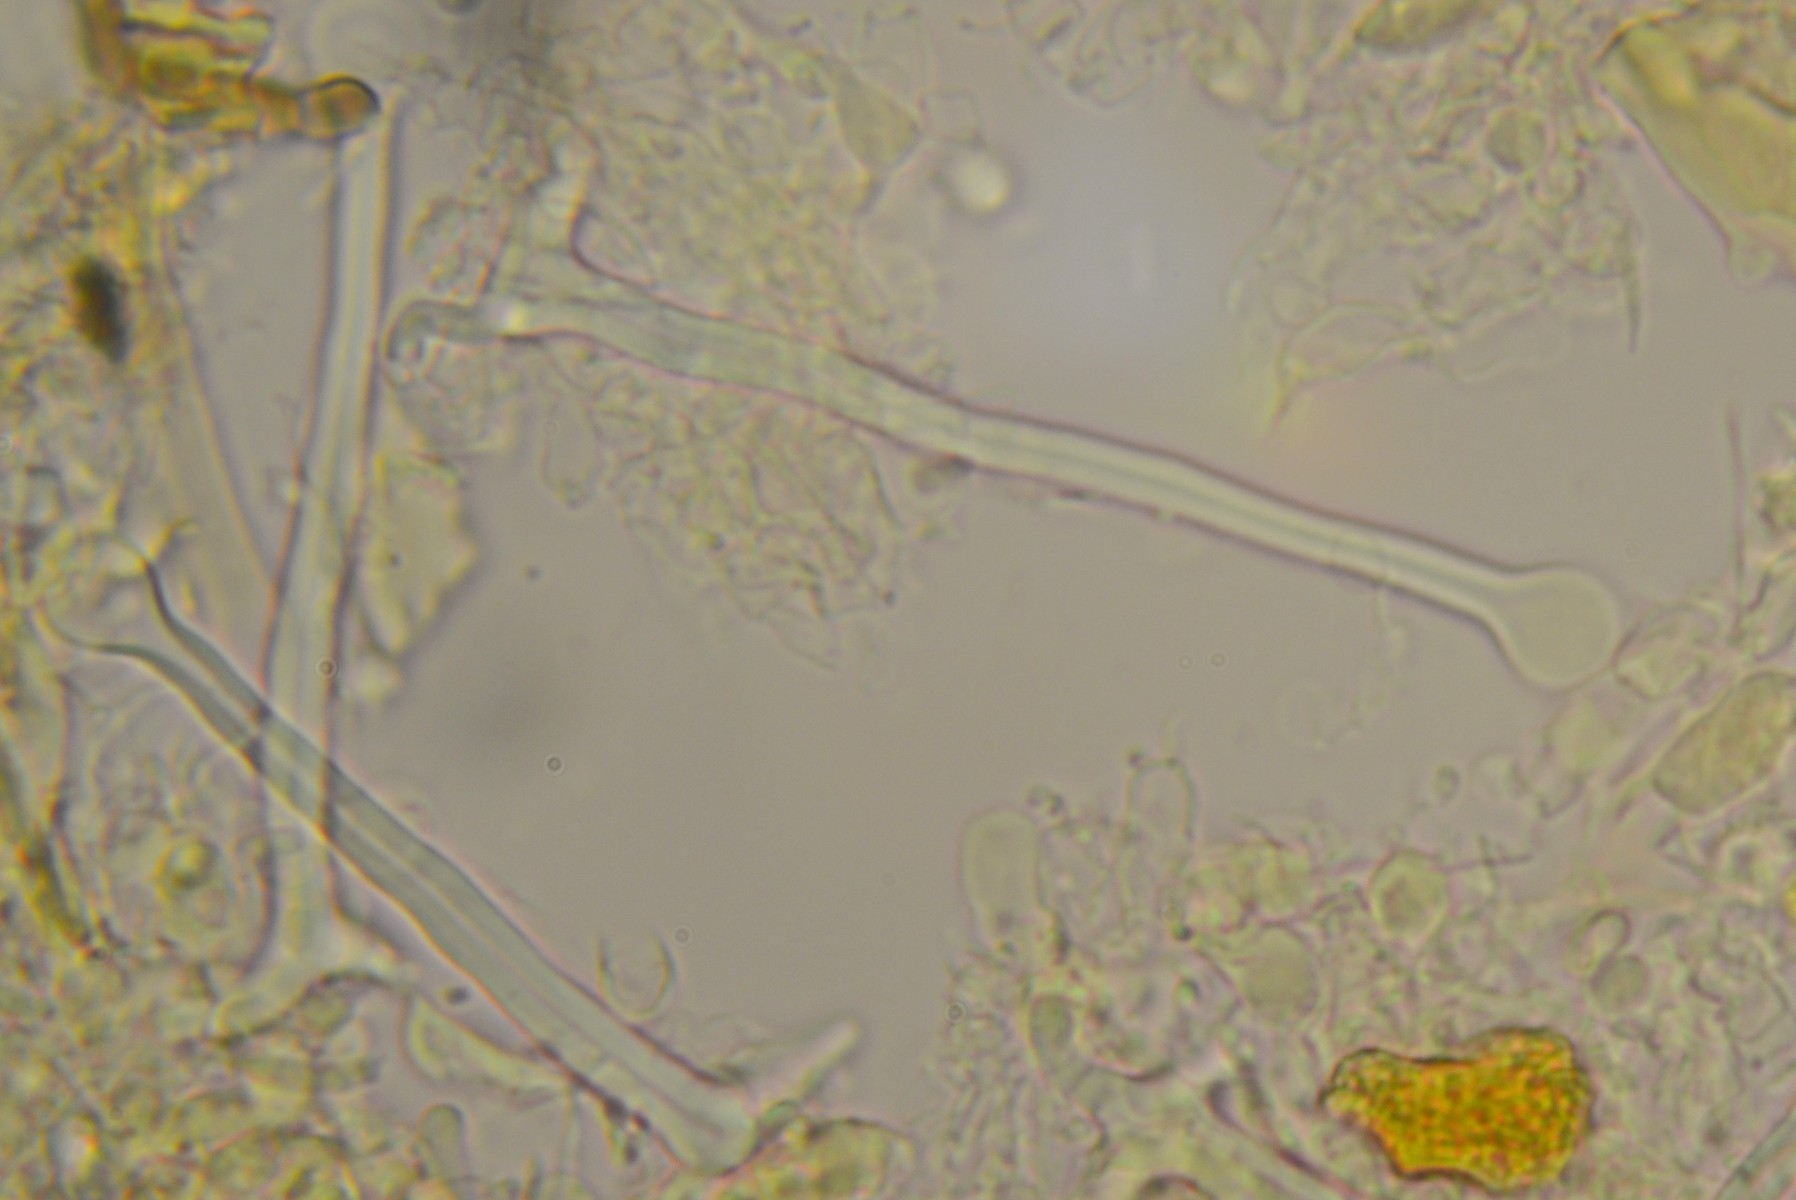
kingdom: Fungi
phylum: Basidiomycota
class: Agaricomycetes
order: Hymenochaetales
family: Hymenochaetaceae
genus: Tubulicrinis
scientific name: Tubulicrinis accedens
